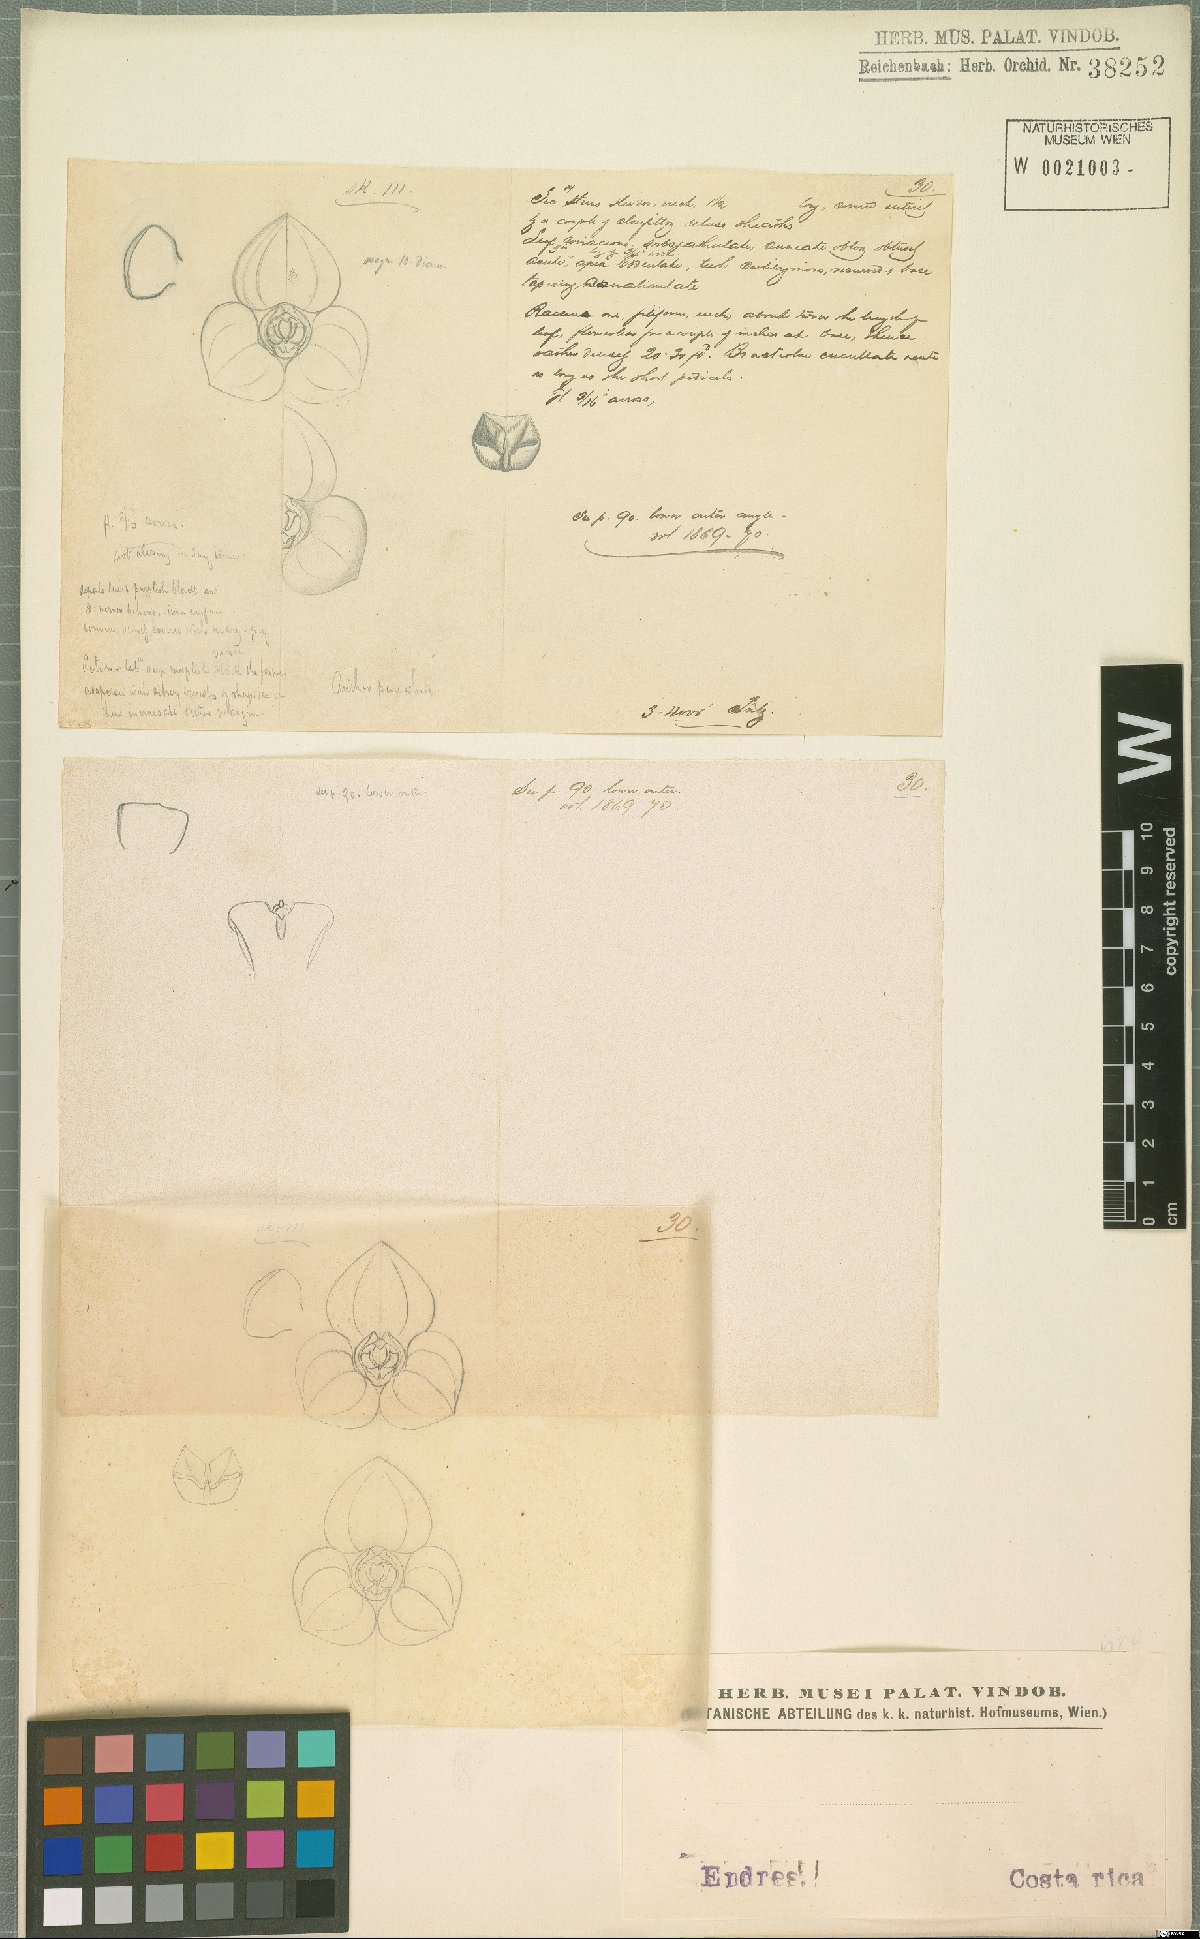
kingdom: Plantae
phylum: Tracheophyta
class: Liliopsida
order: Asparagales
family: Orchidaceae
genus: Stelis
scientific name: Stelis
